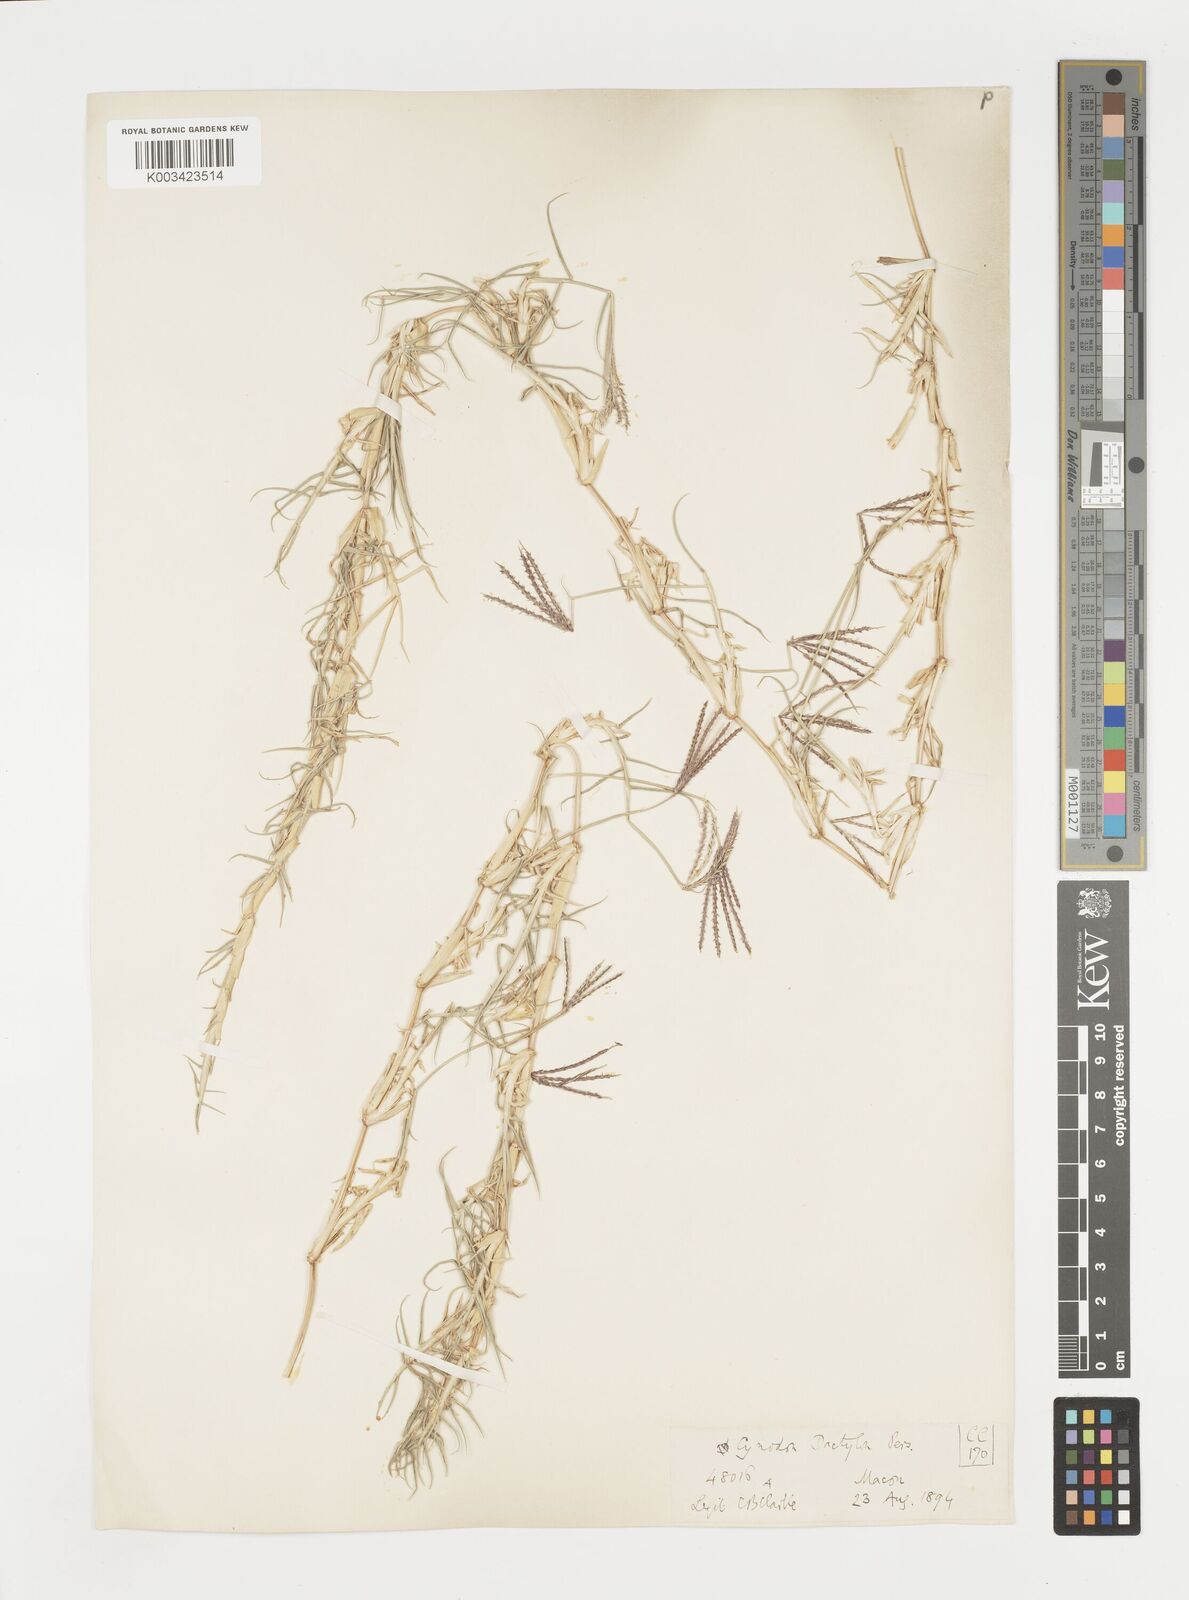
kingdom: Plantae
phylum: Tracheophyta
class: Liliopsida
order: Poales
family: Poaceae
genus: Cynodon
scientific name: Cynodon dactylon
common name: Bermuda grass
